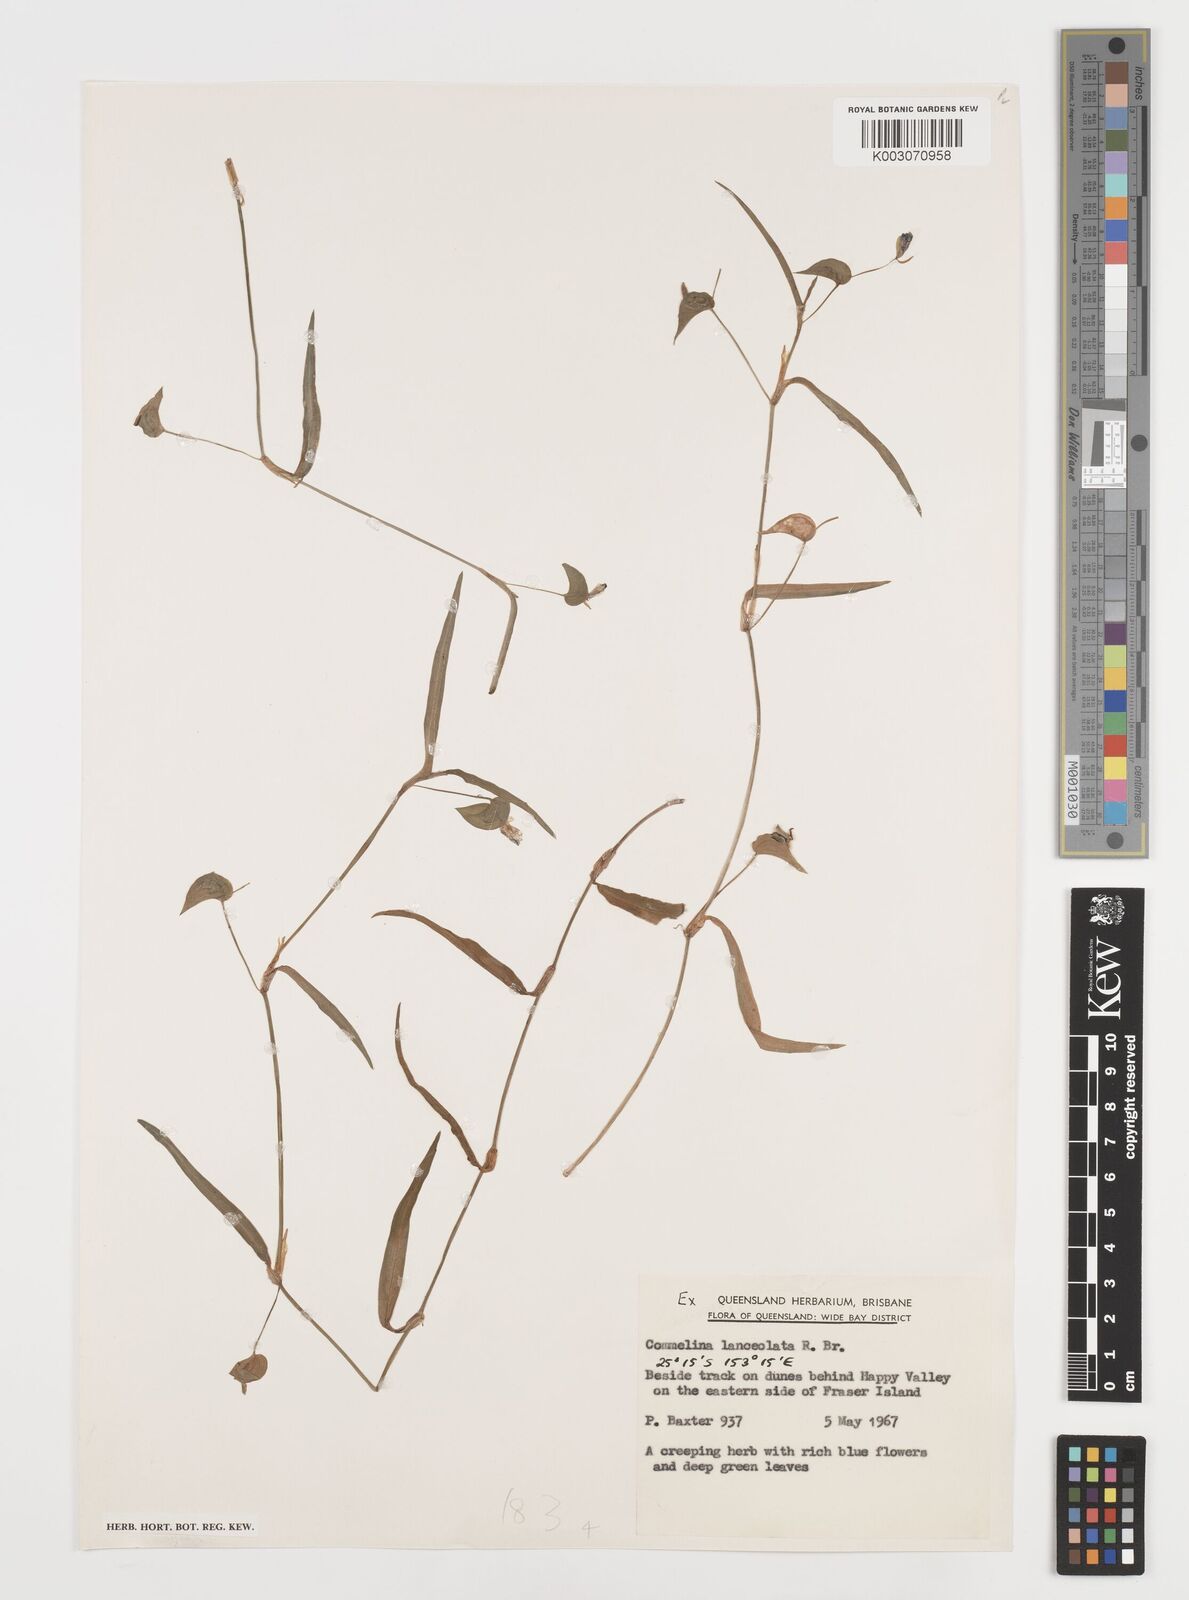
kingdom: Plantae
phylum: Tracheophyta
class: Liliopsida
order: Commelinales
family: Commelinaceae
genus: Commelina
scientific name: Commelina lanceolata
